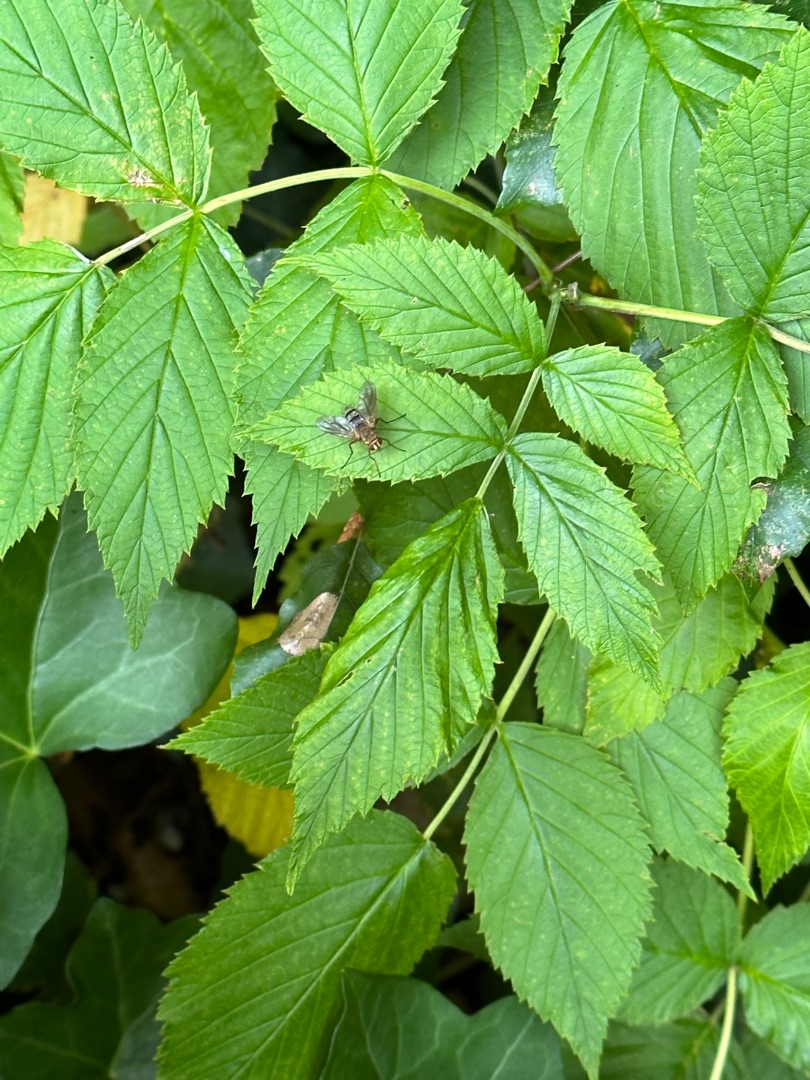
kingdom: Animalia
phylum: Arthropoda
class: Insecta
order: Diptera
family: Tachinidae
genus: Dexiosoma
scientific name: Dexiosoma caninum
